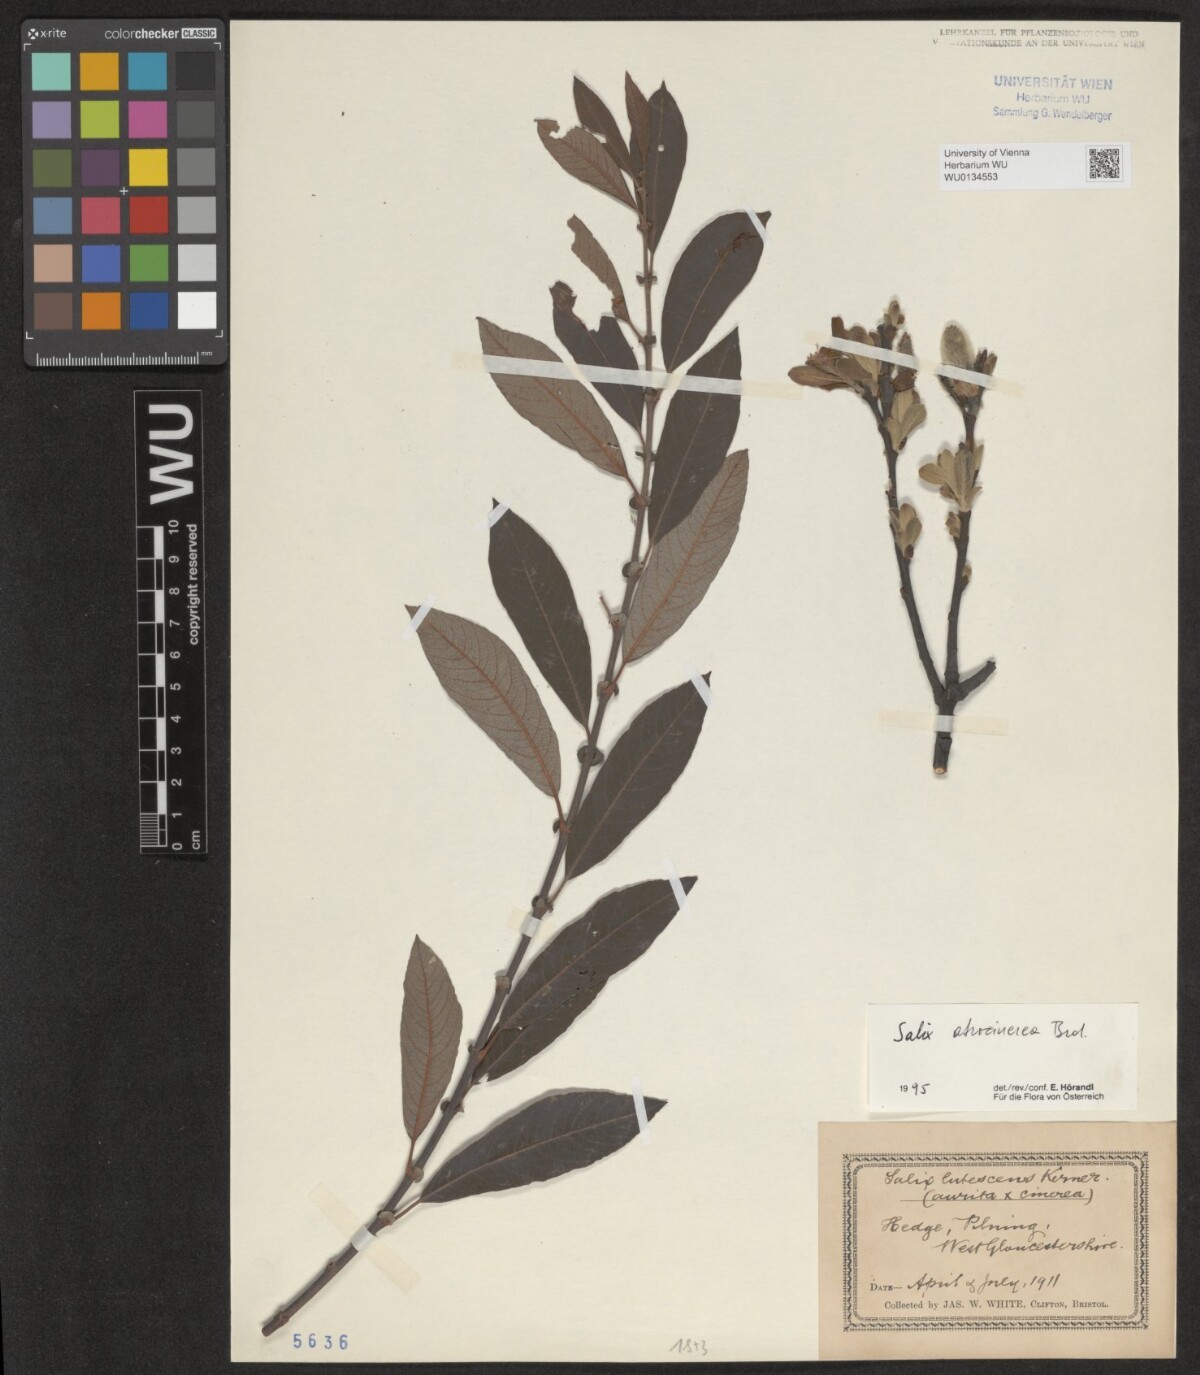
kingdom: Plantae
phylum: Tracheophyta
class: Magnoliopsida
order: Malpighiales
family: Salicaceae
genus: Salix
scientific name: Salix atrocinerea
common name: Rusty willow
